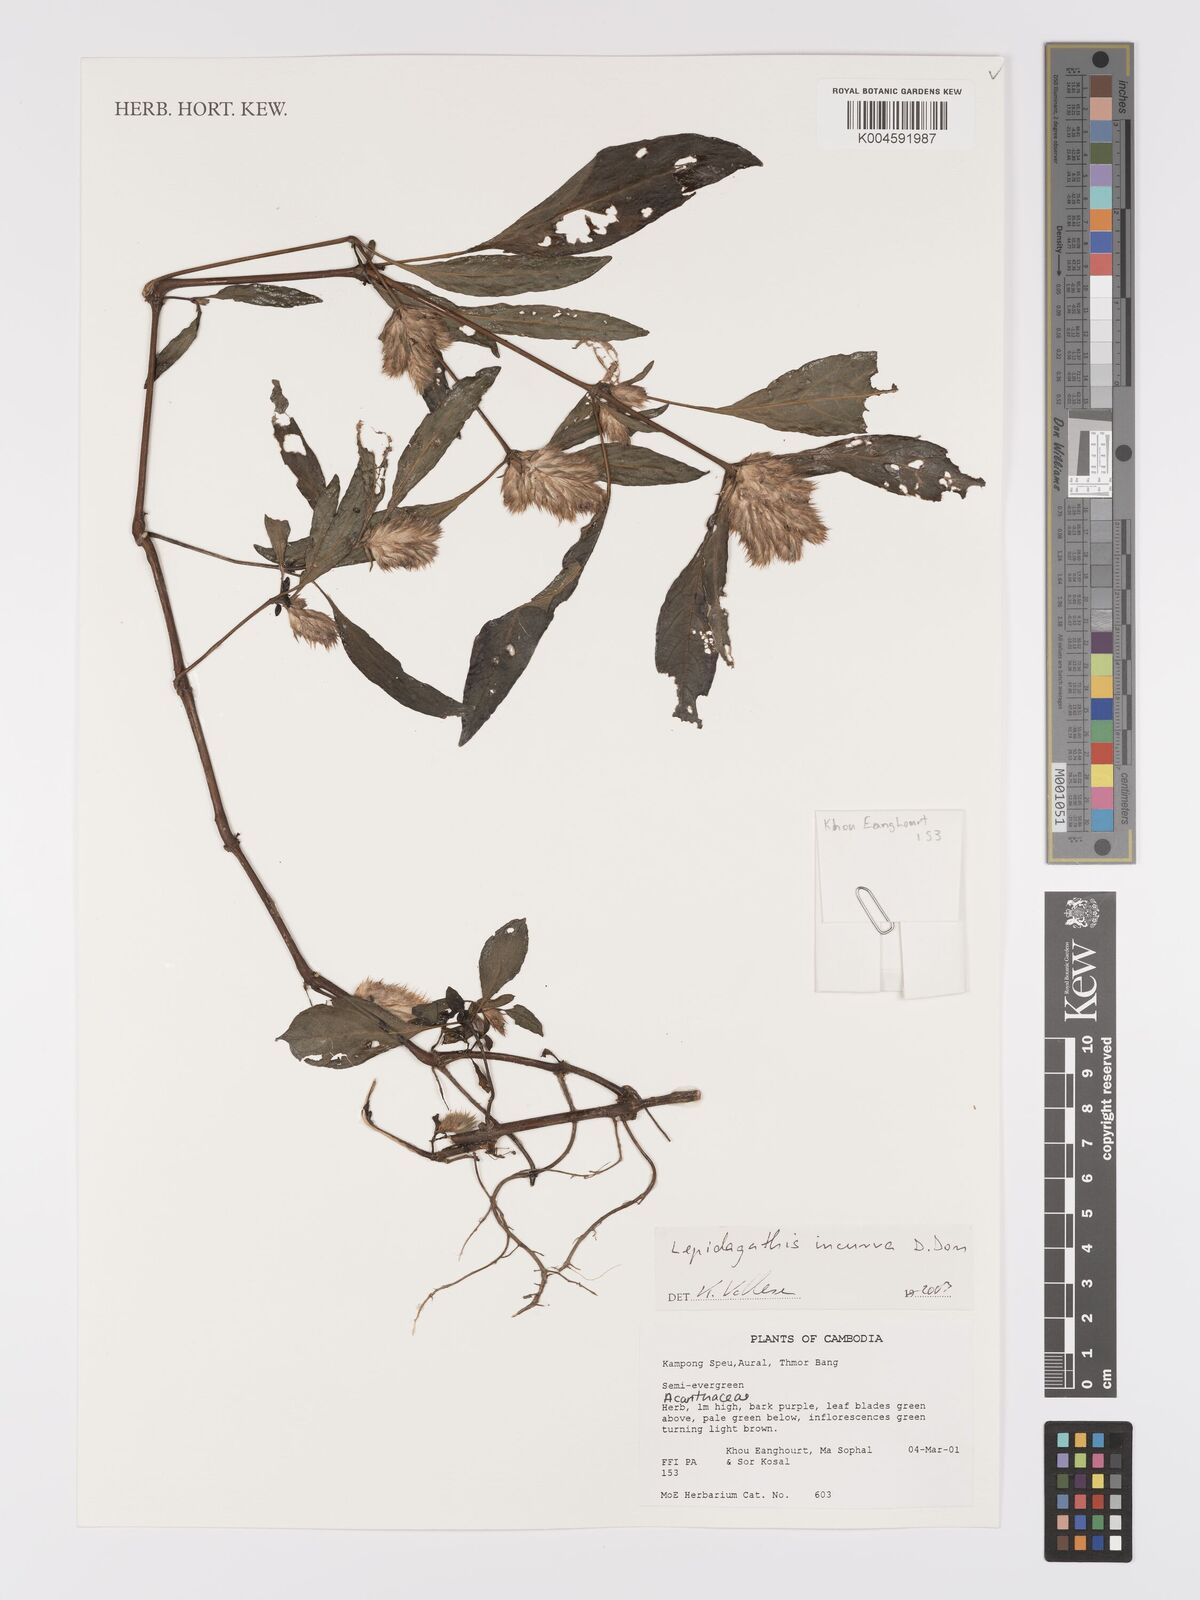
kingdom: Plantae
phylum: Tracheophyta
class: Magnoliopsida
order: Lamiales
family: Acanthaceae
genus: Lepidagathis
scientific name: Lepidagathis incurva
